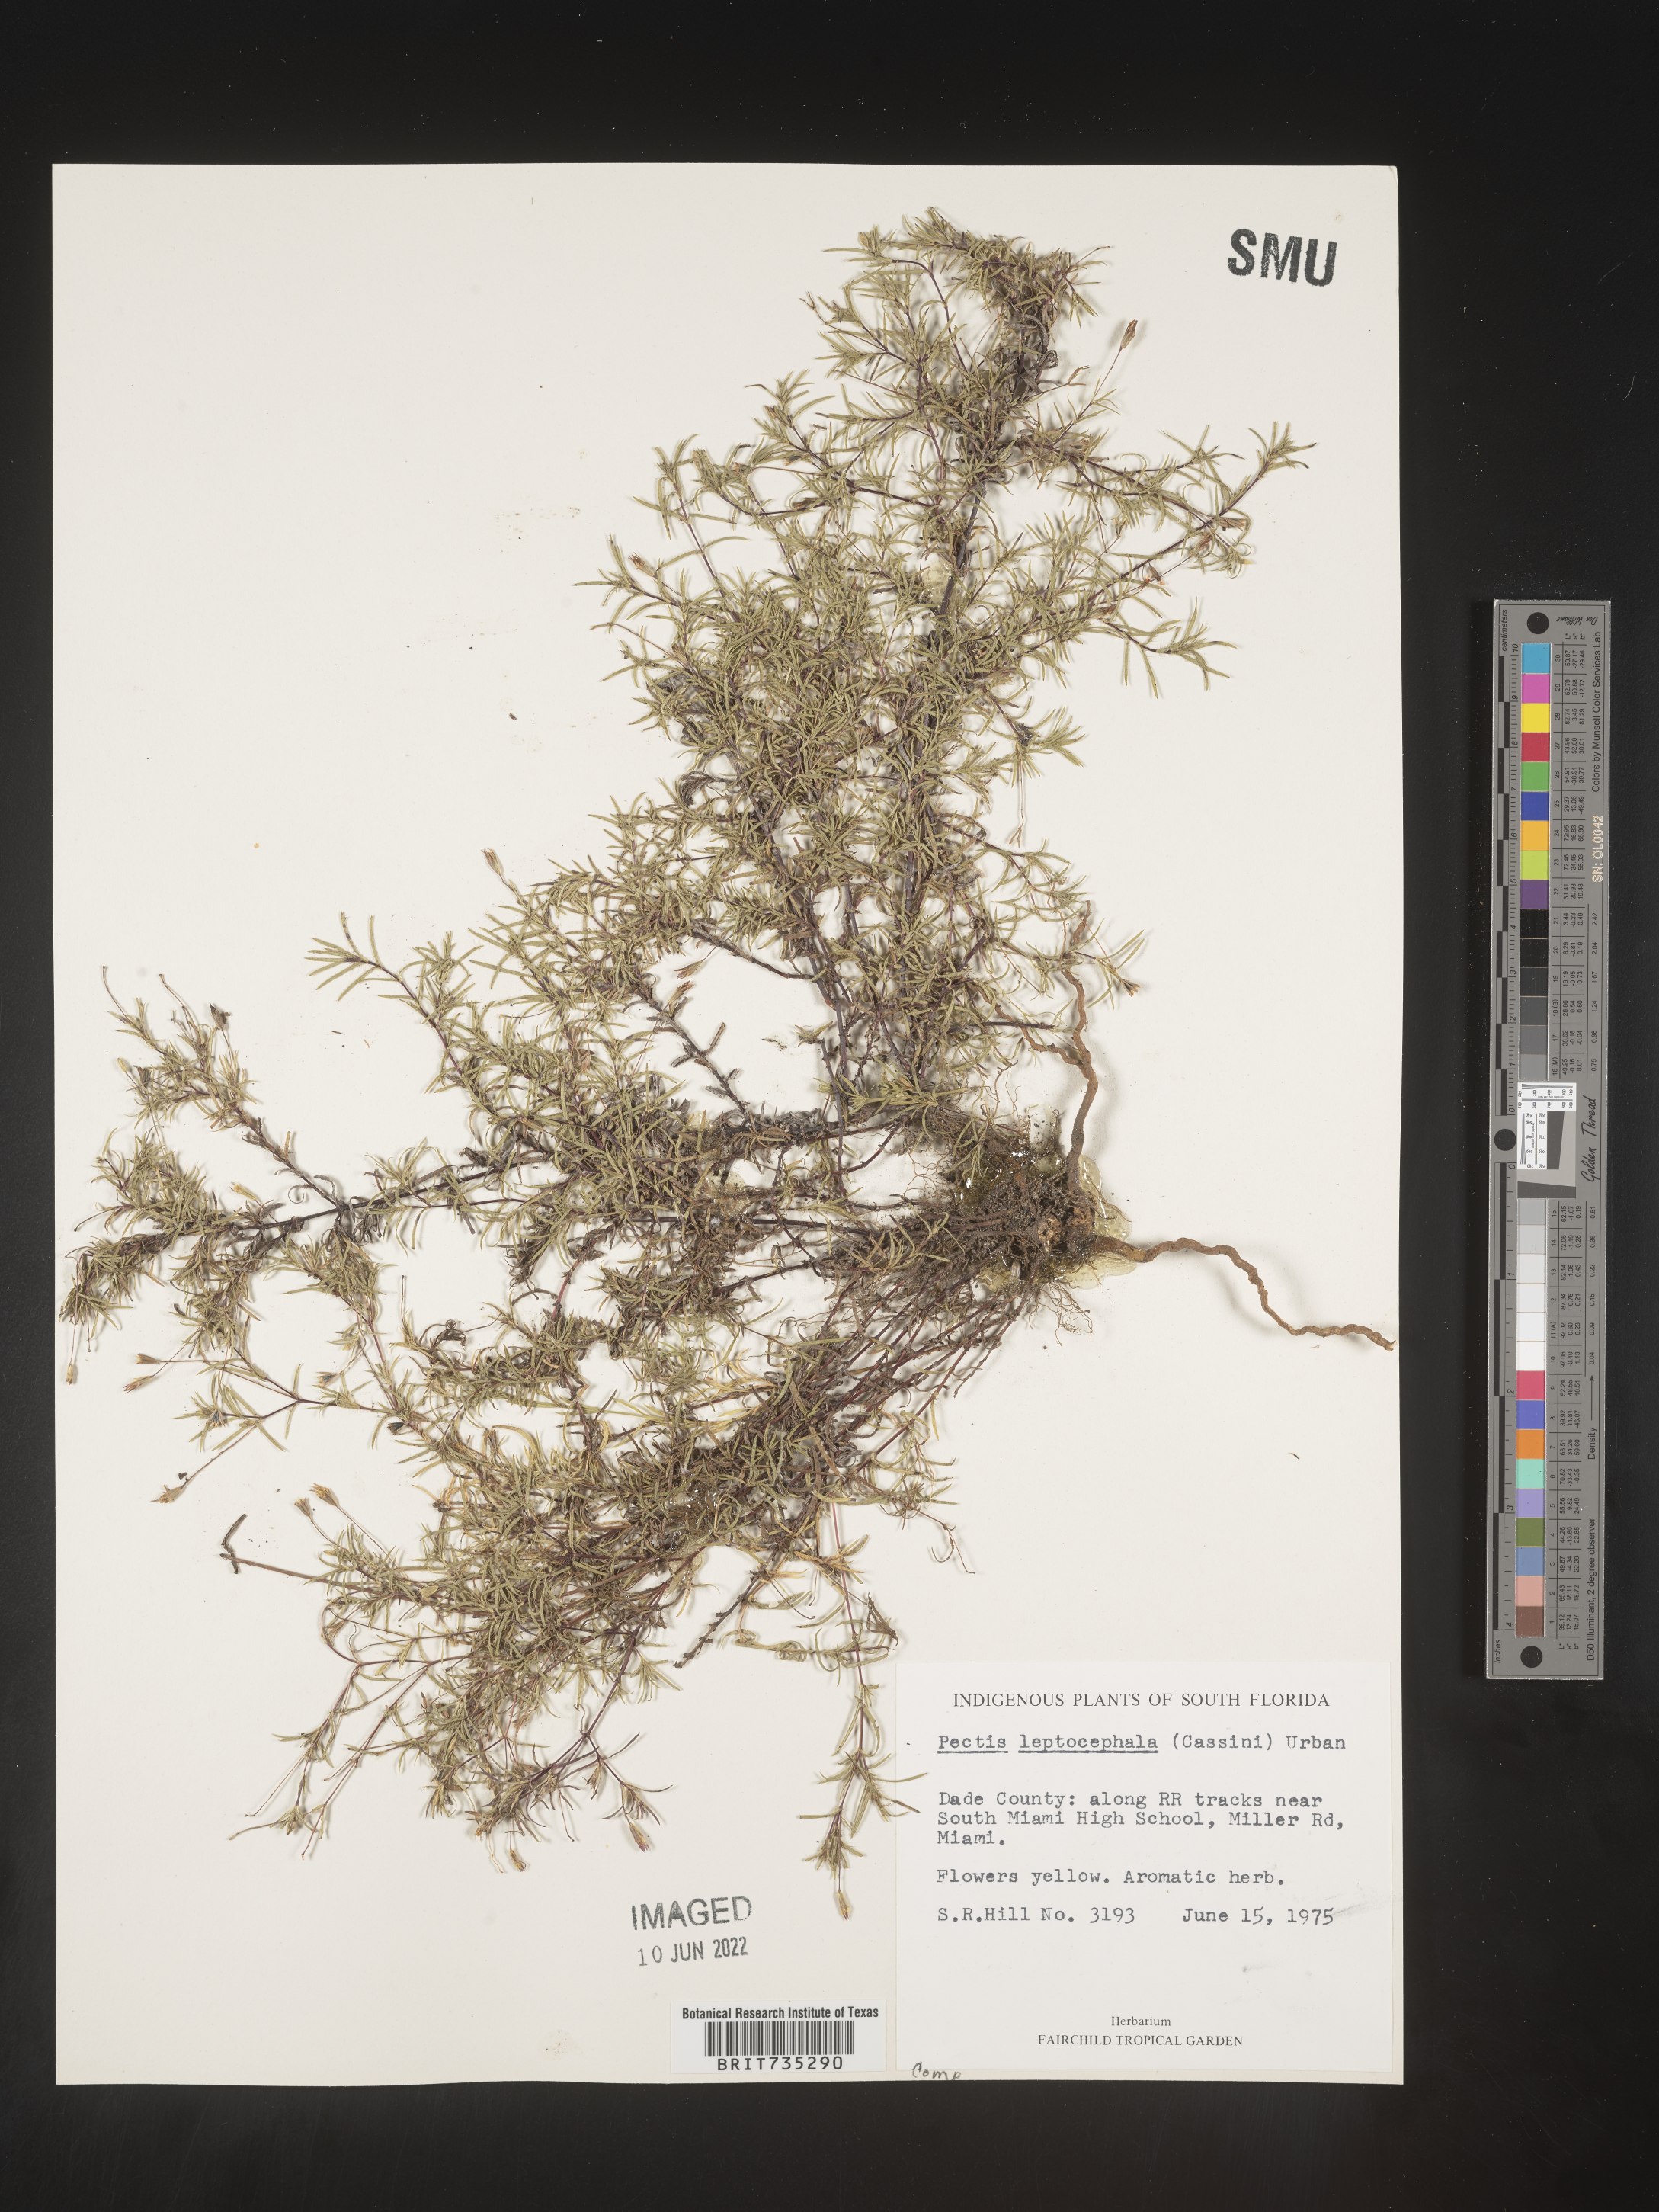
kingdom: Plantae
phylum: Tracheophyta
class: Magnoliopsida
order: Asterales
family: Asteraceae
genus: Pectis
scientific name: Pectis glaucescens
